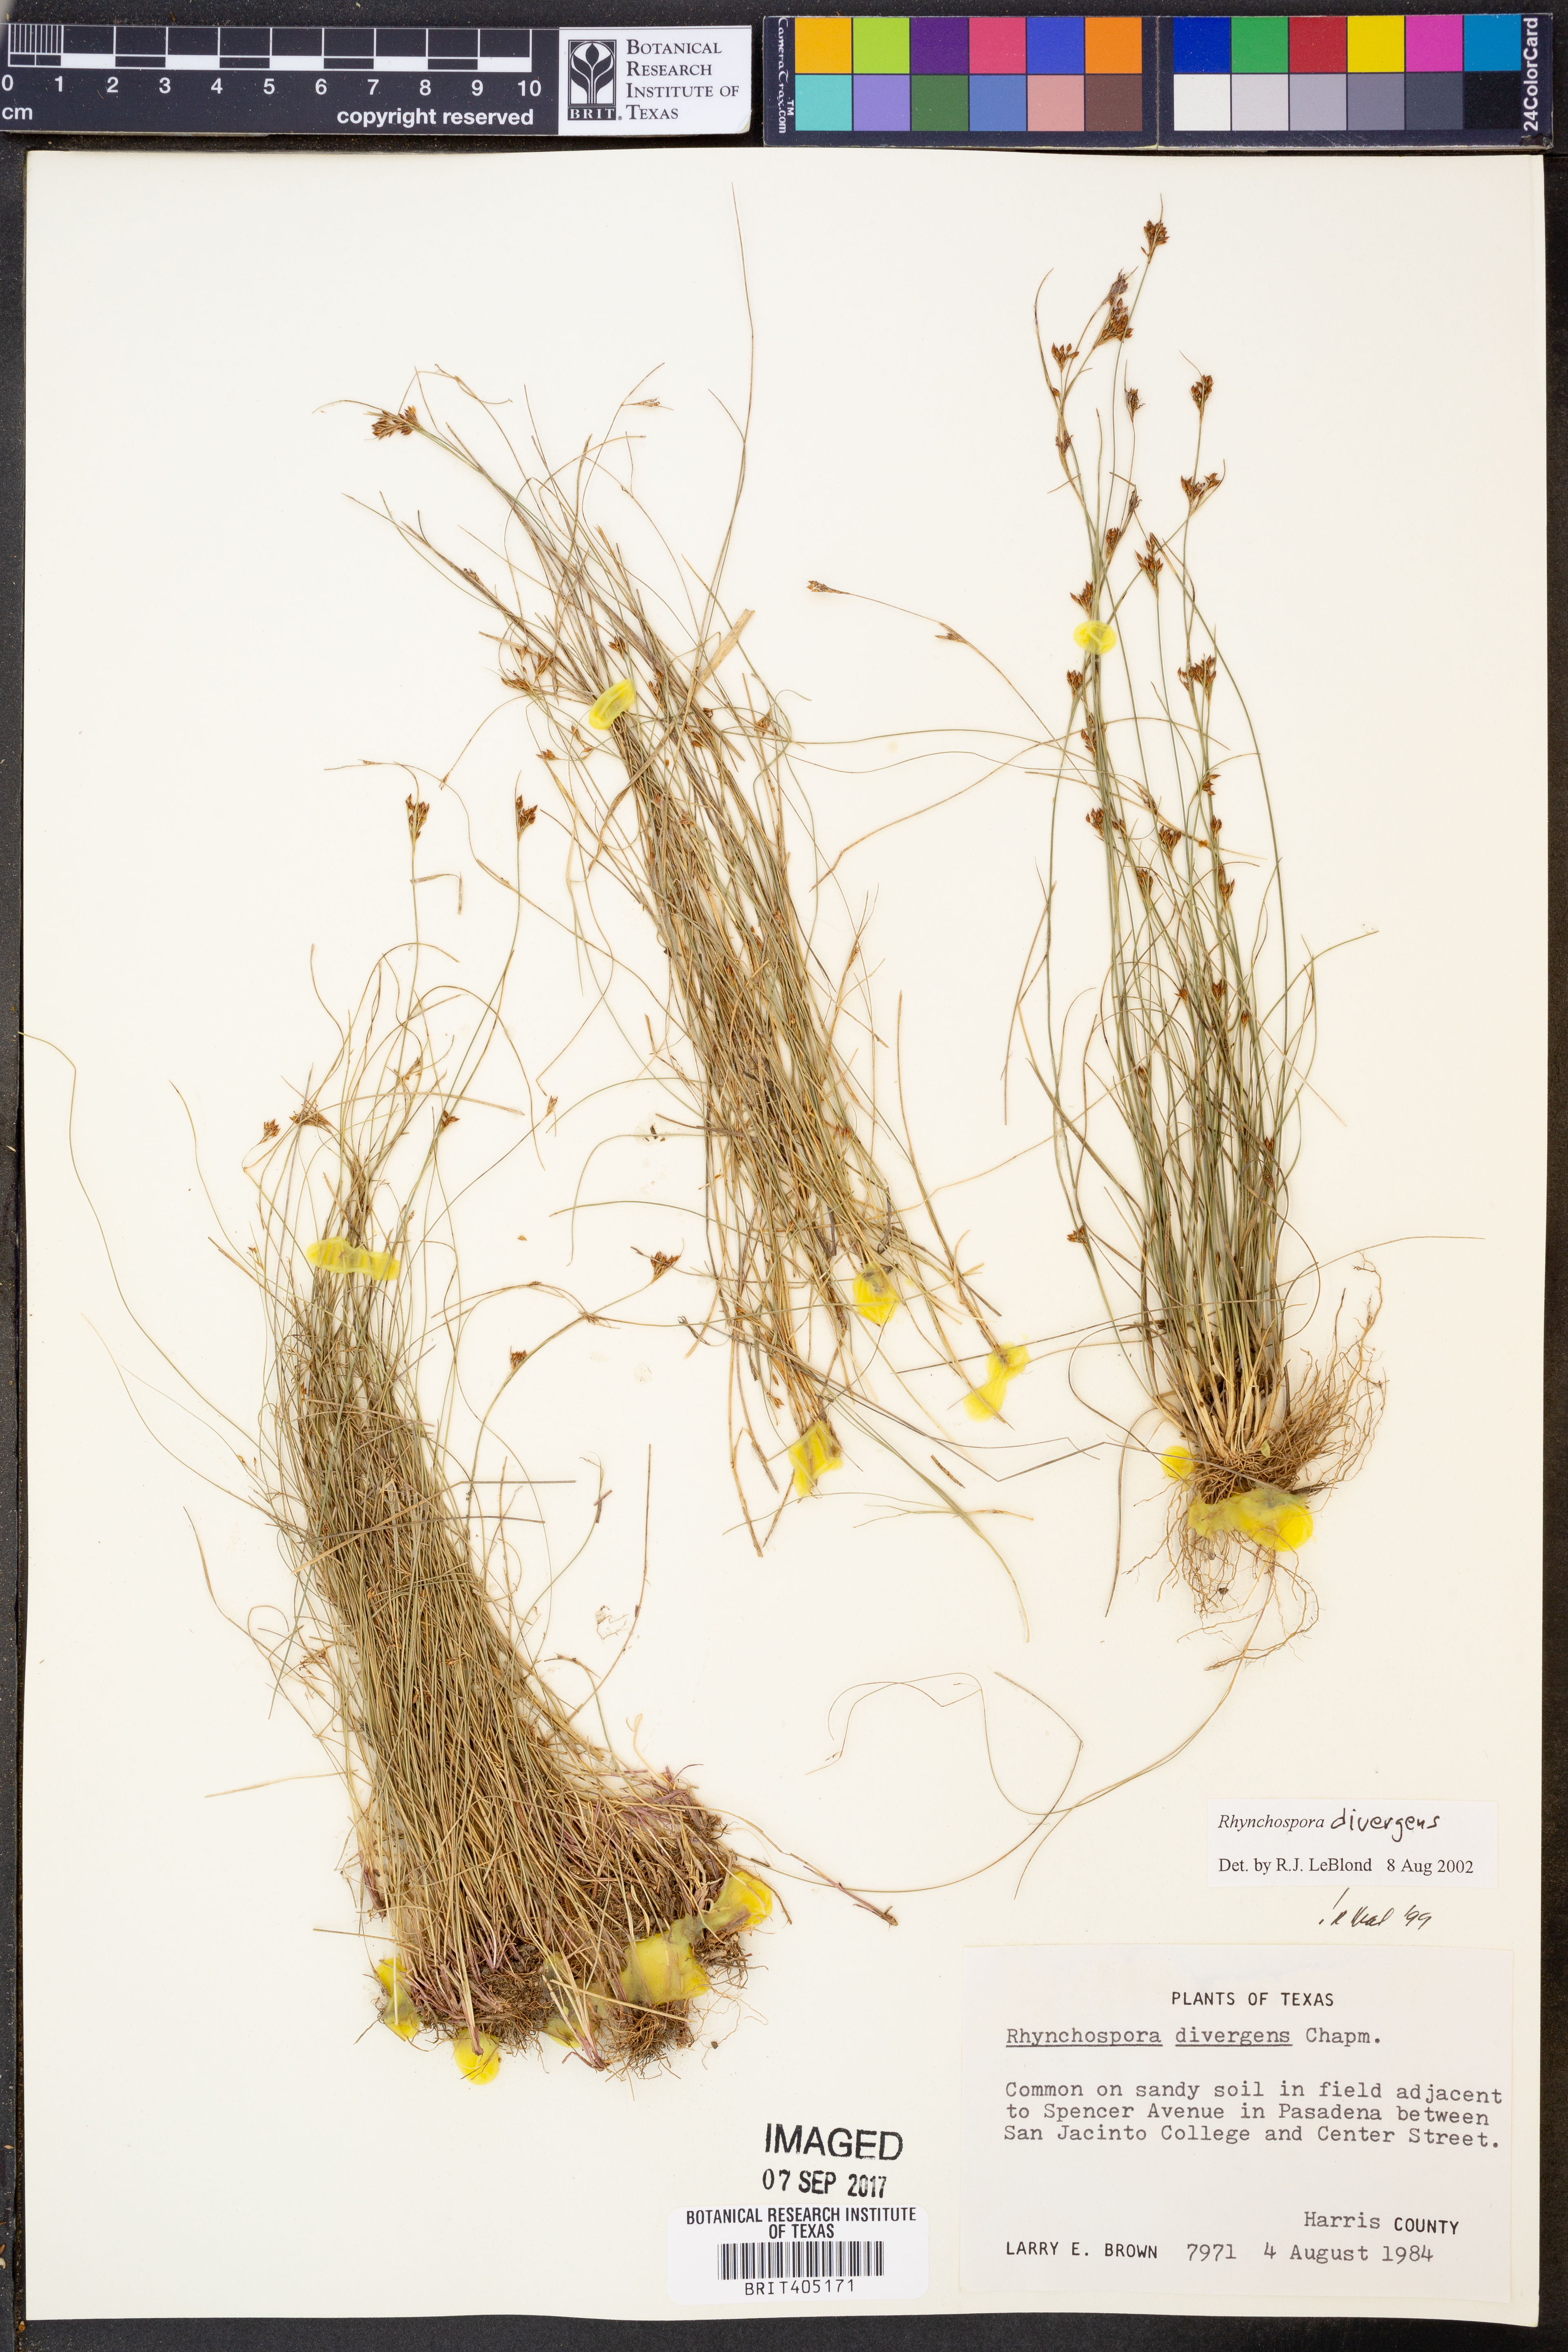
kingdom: Plantae
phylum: Tracheophyta
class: Liliopsida
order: Poales
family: Cyperaceae
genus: Rhynchospora
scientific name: Rhynchospora divergens
